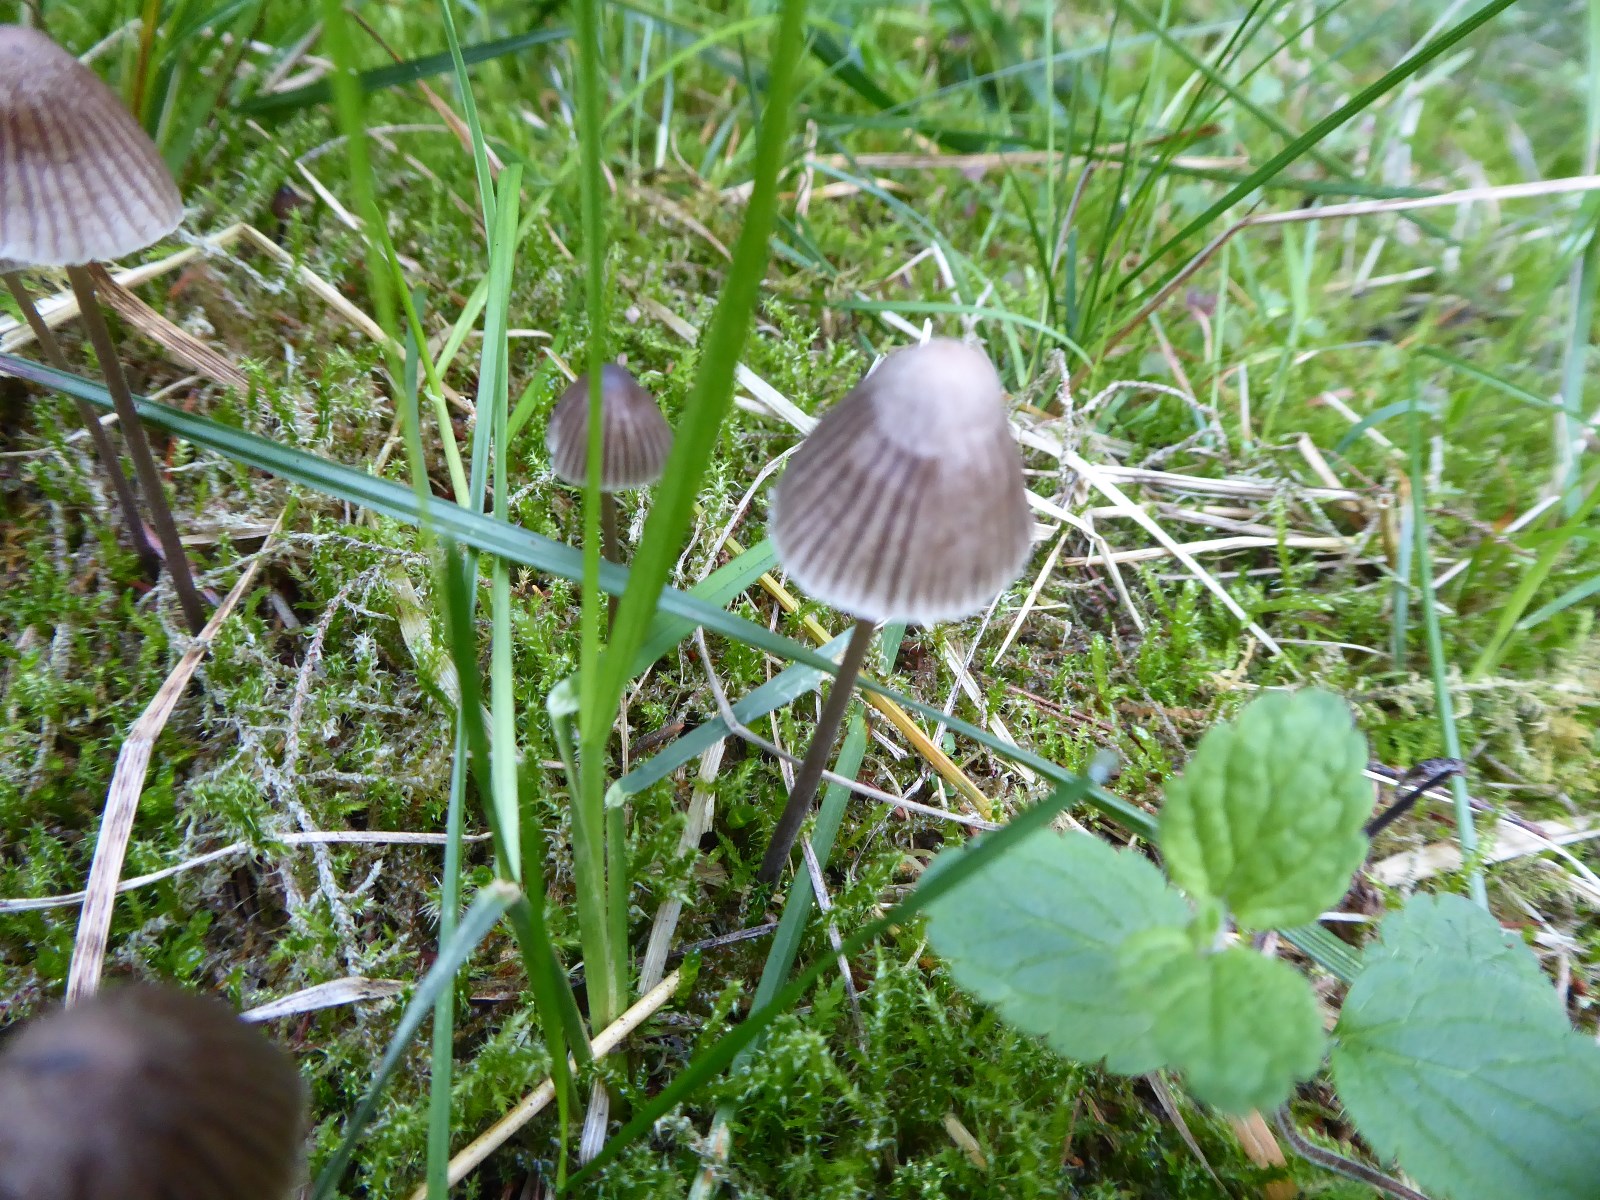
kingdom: Fungi
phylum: Basidiomycota
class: Agaricomycetes
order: Agaricales
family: Mycenaceae
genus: Mycena
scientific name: Mycena
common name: huesvamp
